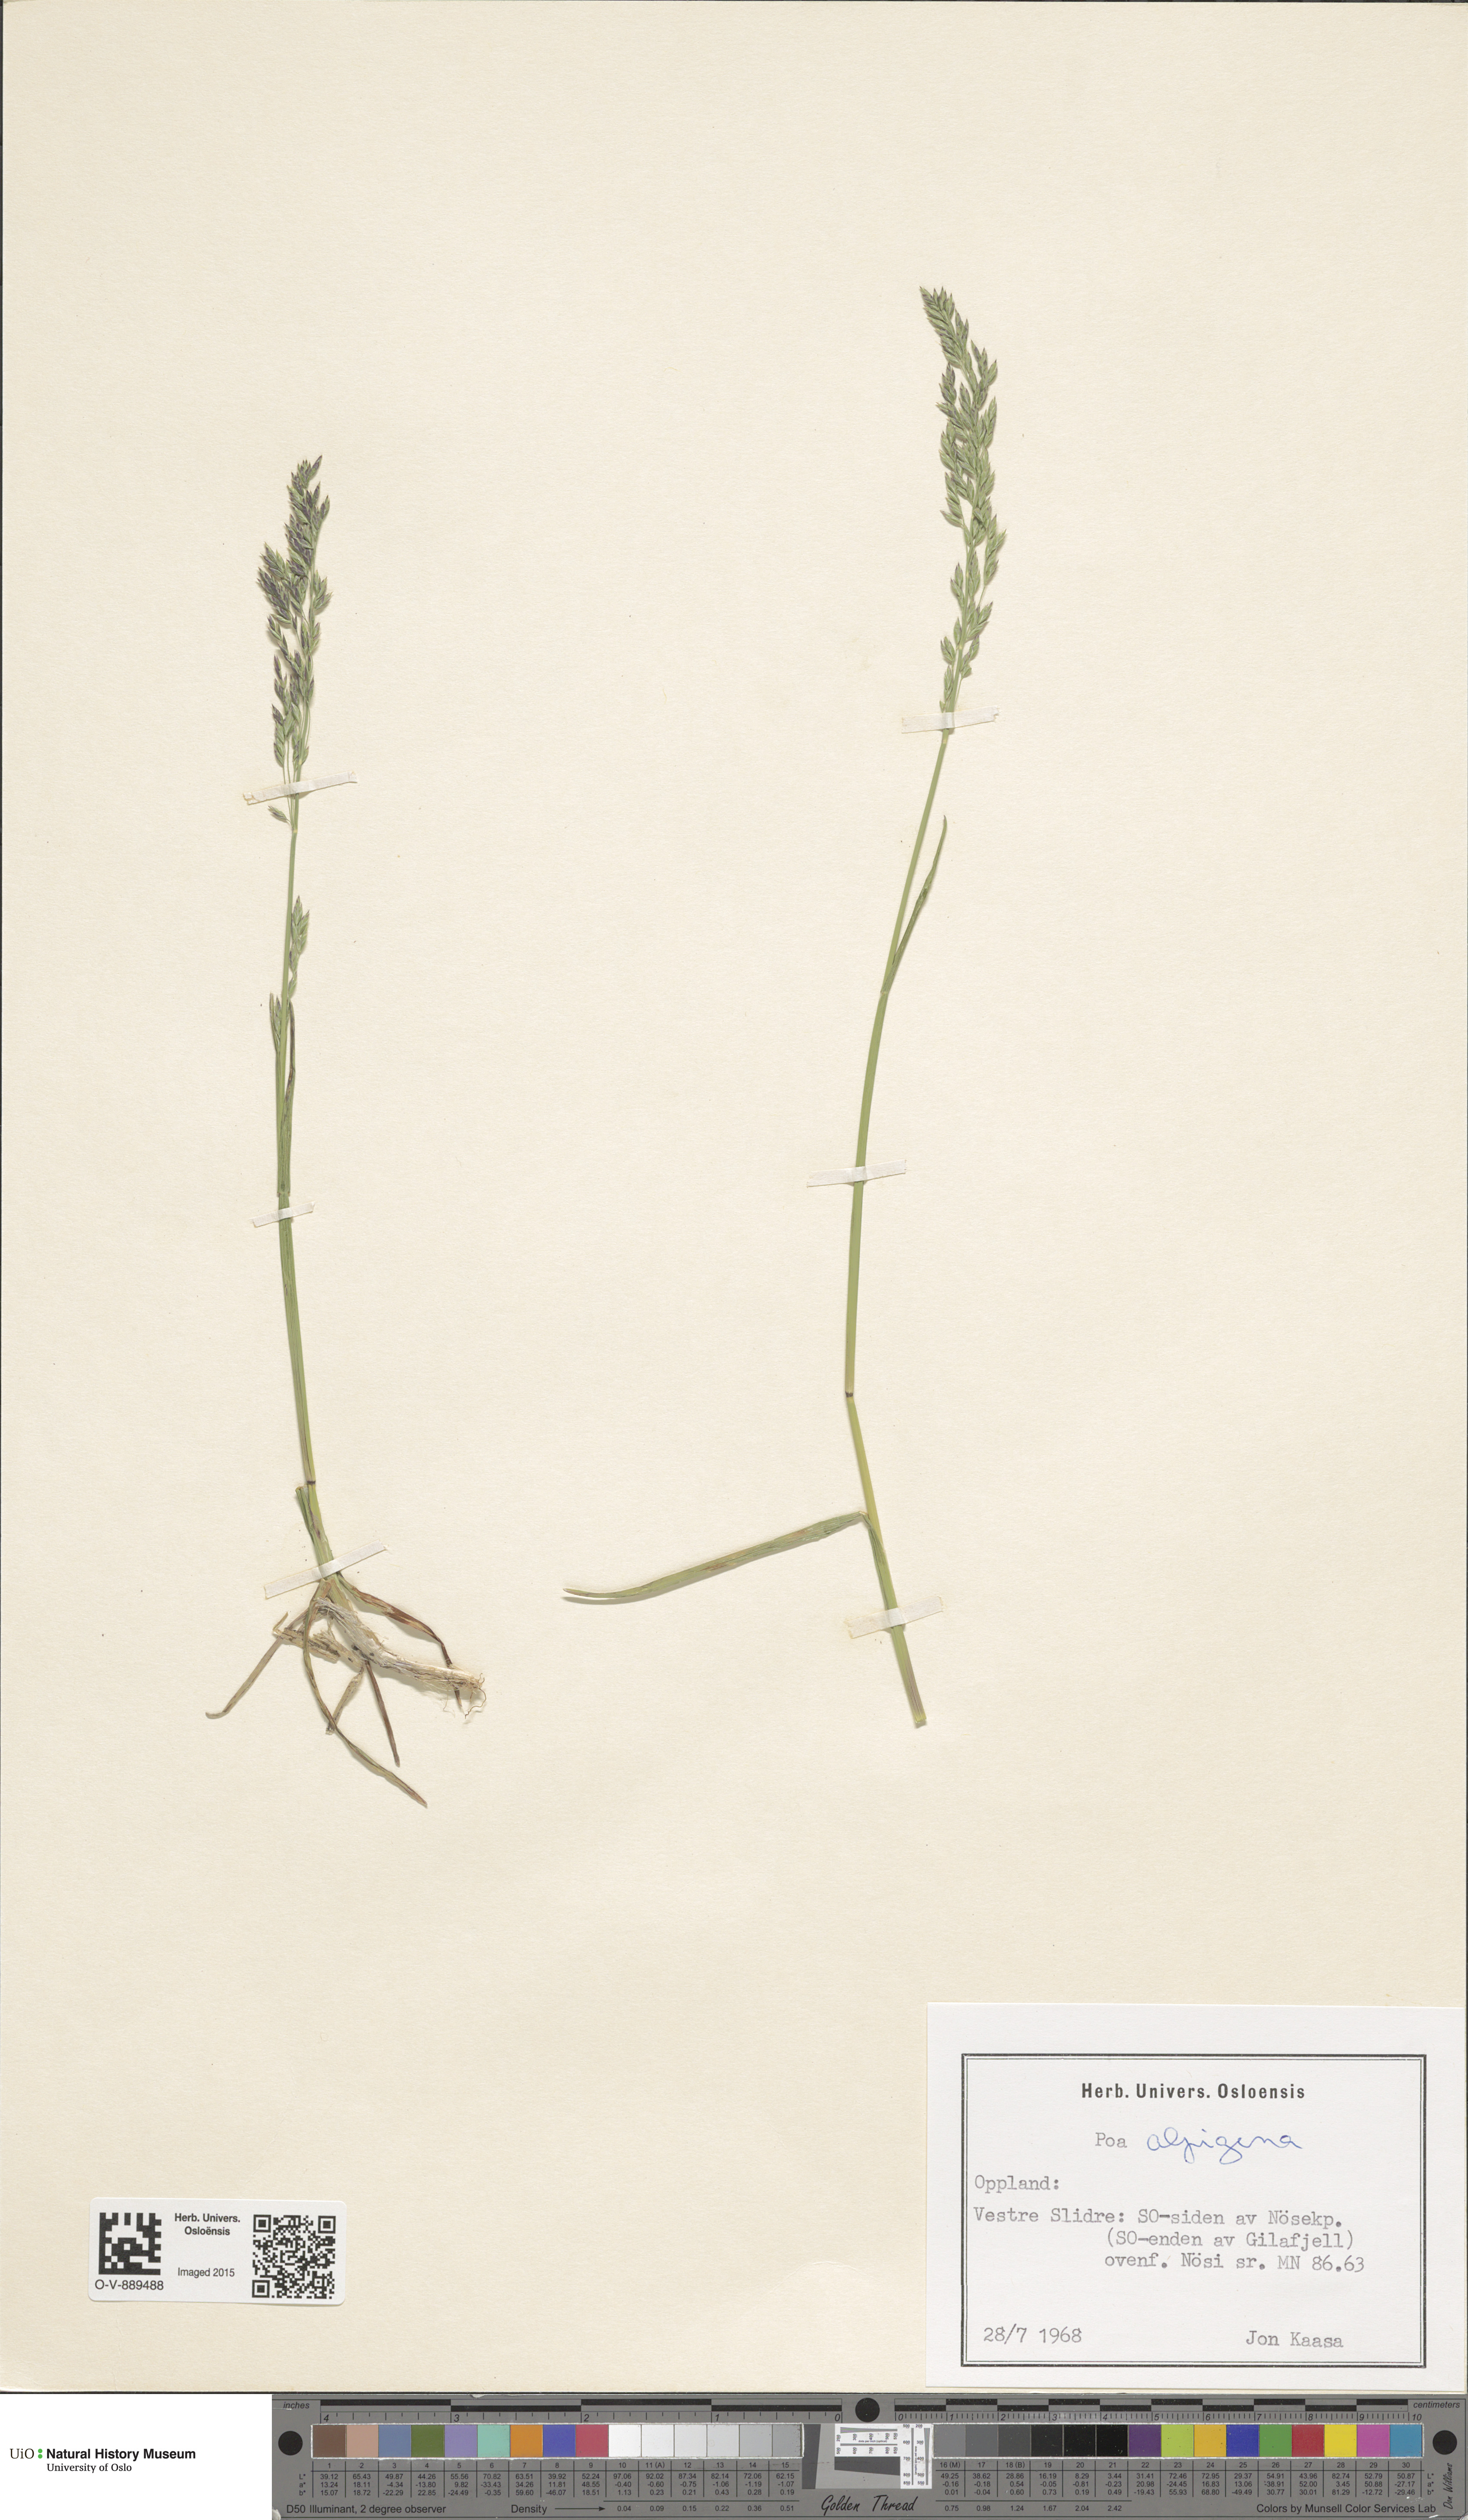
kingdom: Plantae
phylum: Tracheophyta
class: Liliopsida
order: Poales
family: Poaceae
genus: Poa
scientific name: Poa alpigena
